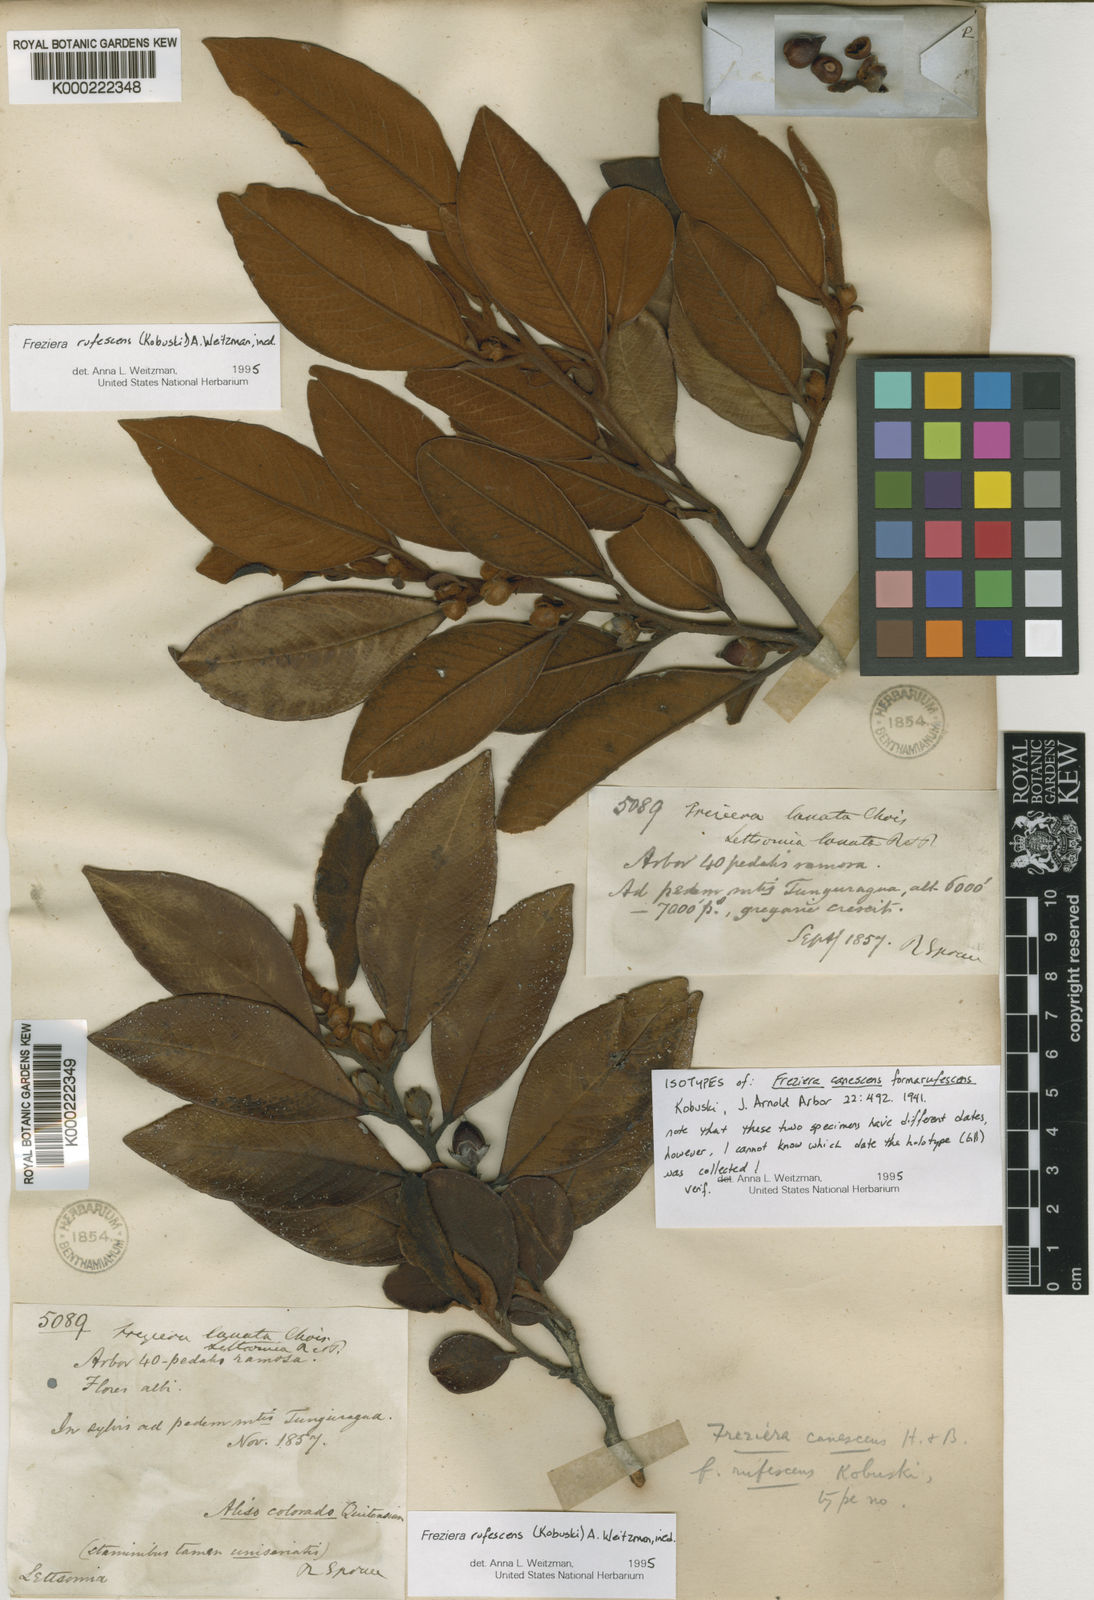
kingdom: Plantae
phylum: Tracheophyta
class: Magnoliopsida
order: Ericales
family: Pentaphylacaceae
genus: Freziera
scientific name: Freziera
